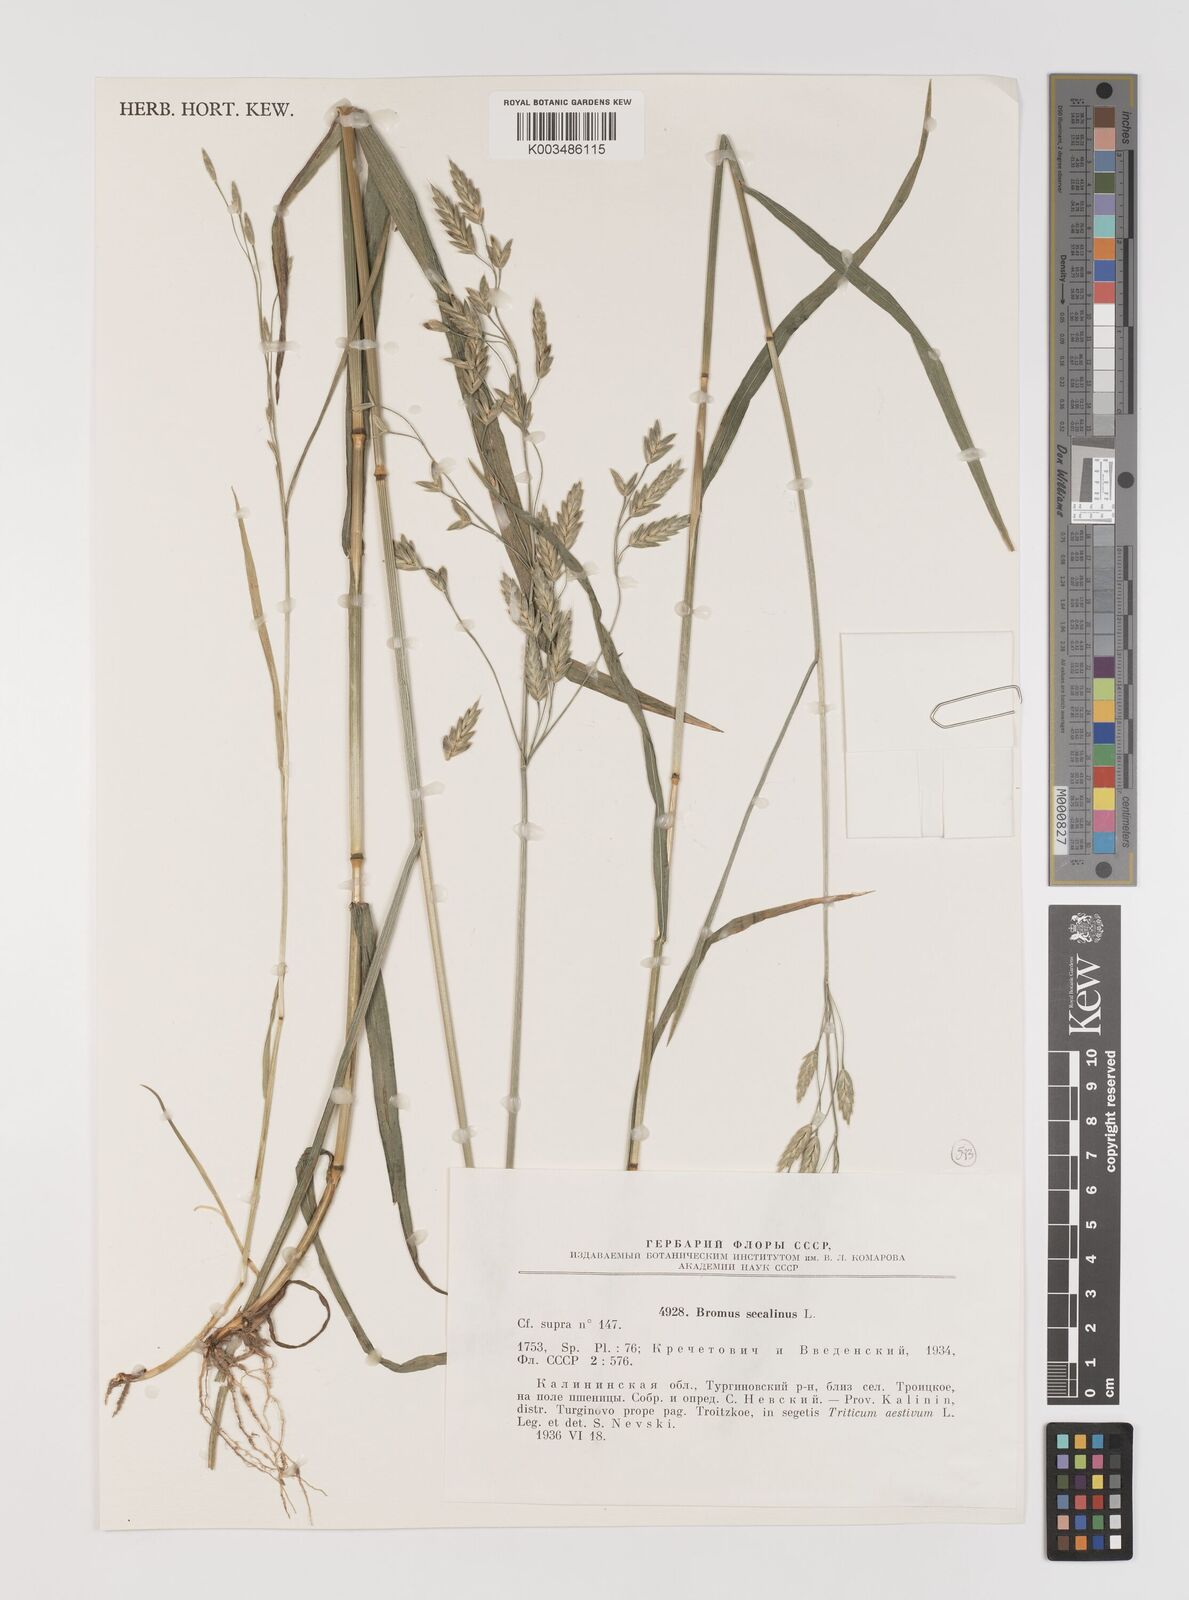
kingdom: Plantae
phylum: Tracheophyta
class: Liliopsida
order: Poales
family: Poaceae
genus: Bromus
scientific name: Bromus secalinus
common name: Rye brome
